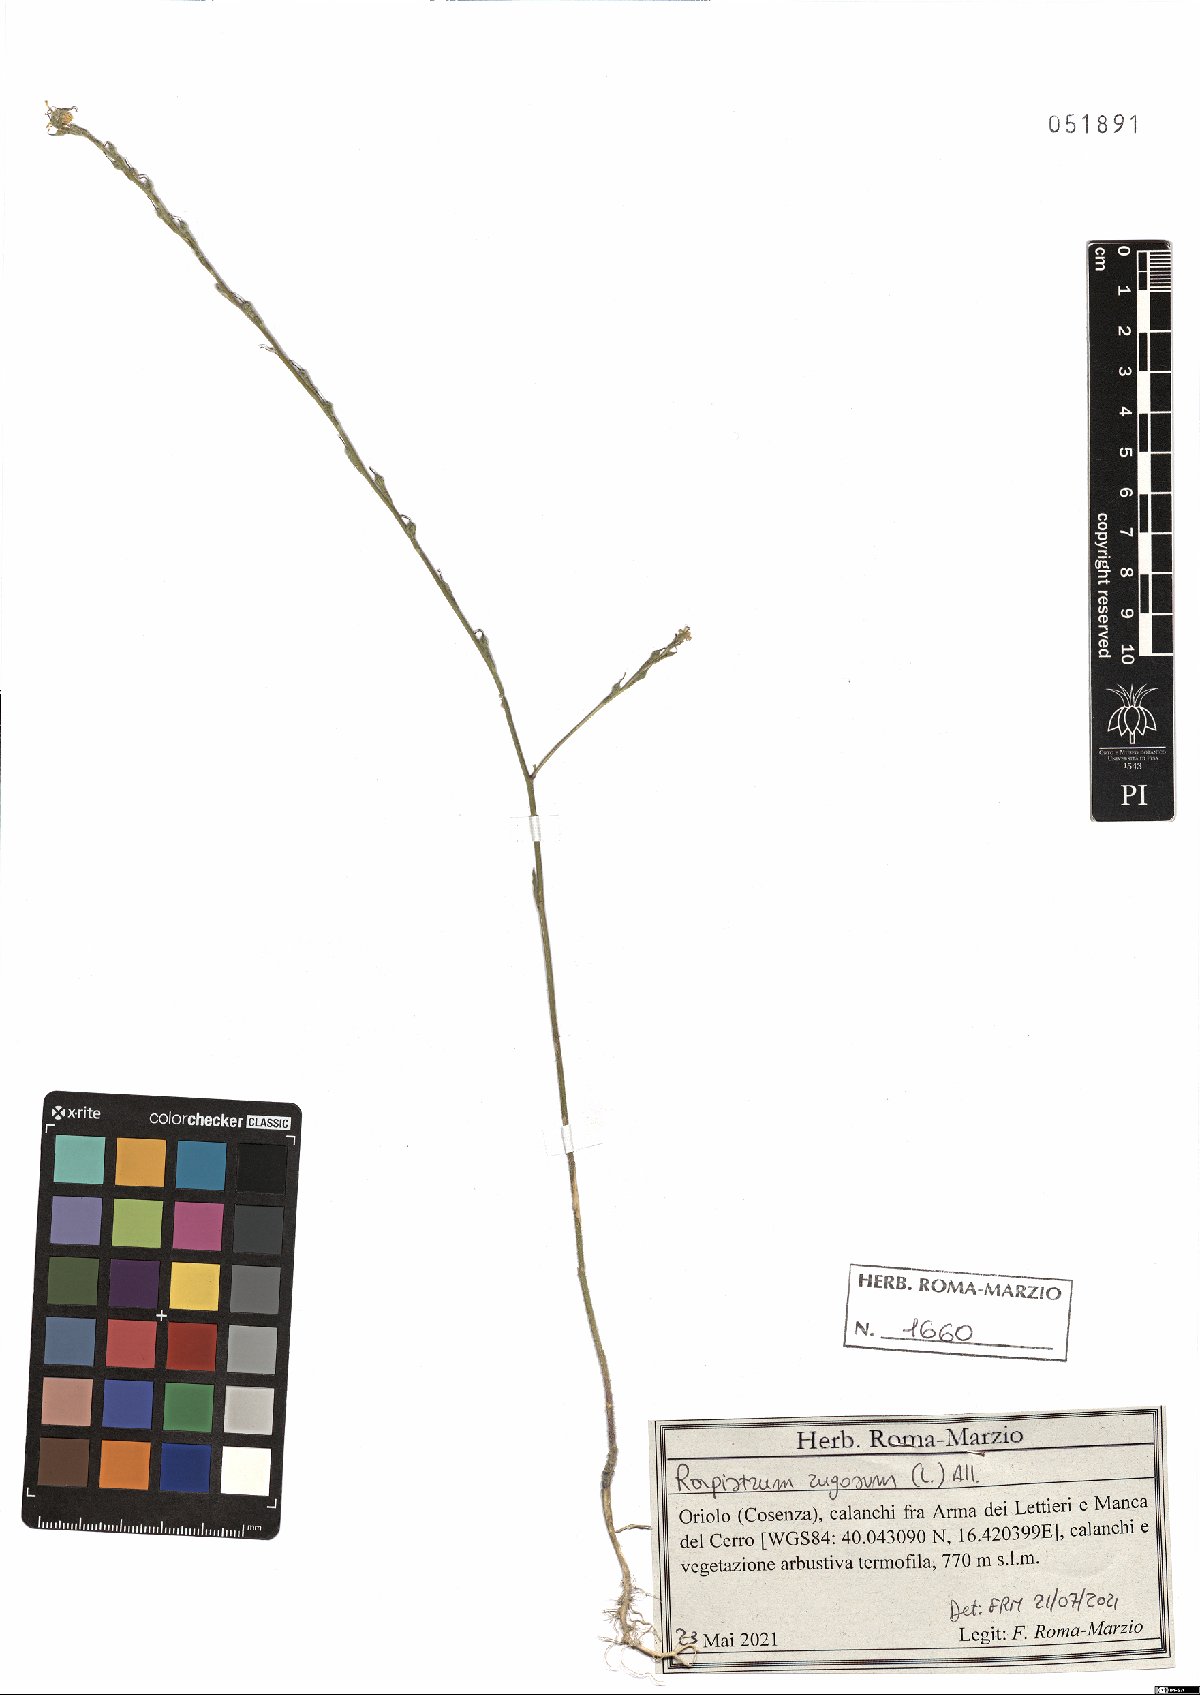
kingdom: Plantae
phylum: Tracheophyta
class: Magnoliopsida
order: Brassicales
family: Brassicaceae
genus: Rapistrum
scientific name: Rapistrum rugosum
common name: Annual bastardcabbage
